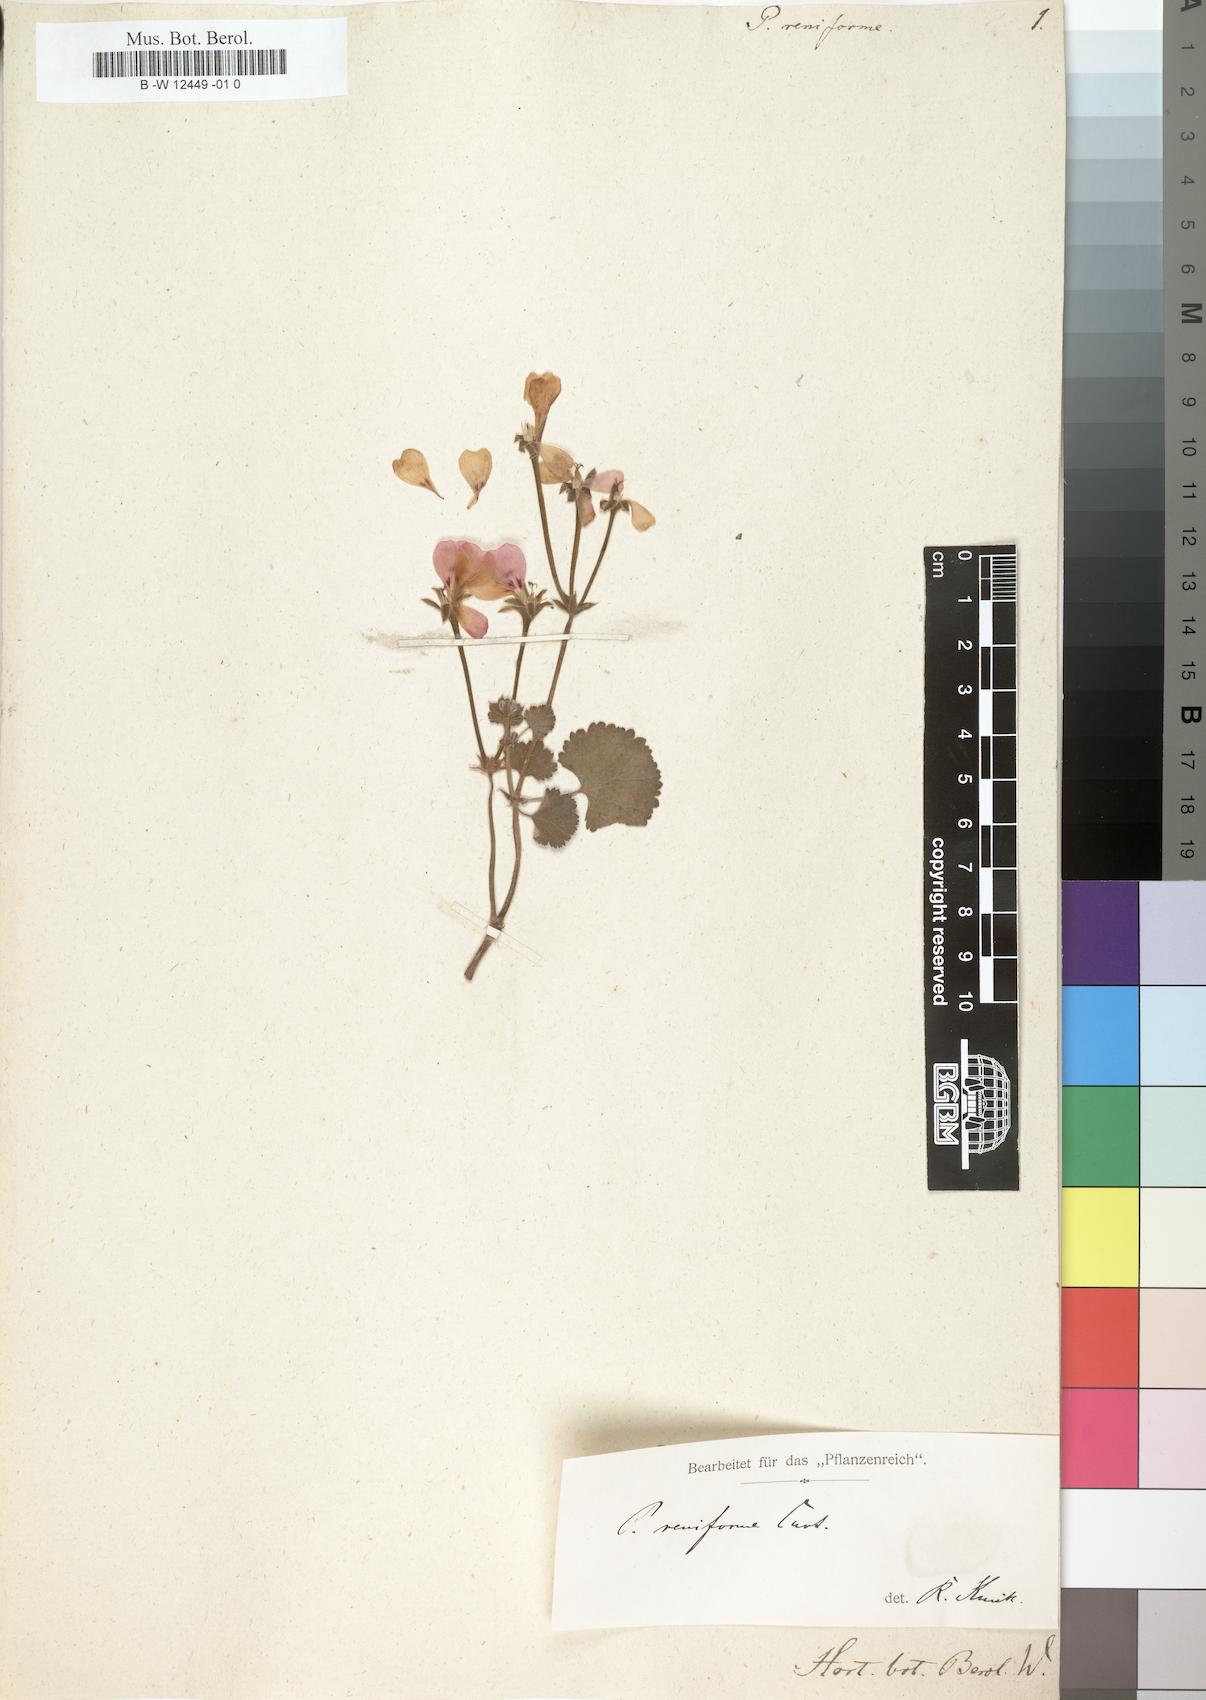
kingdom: Plantae
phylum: Tracheophyta
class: Magnoliopsida
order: Geraniales
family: Geraniaceae
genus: Pelargonium
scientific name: Pelargonium reniforme
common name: Kidney-leaf pelargonium
